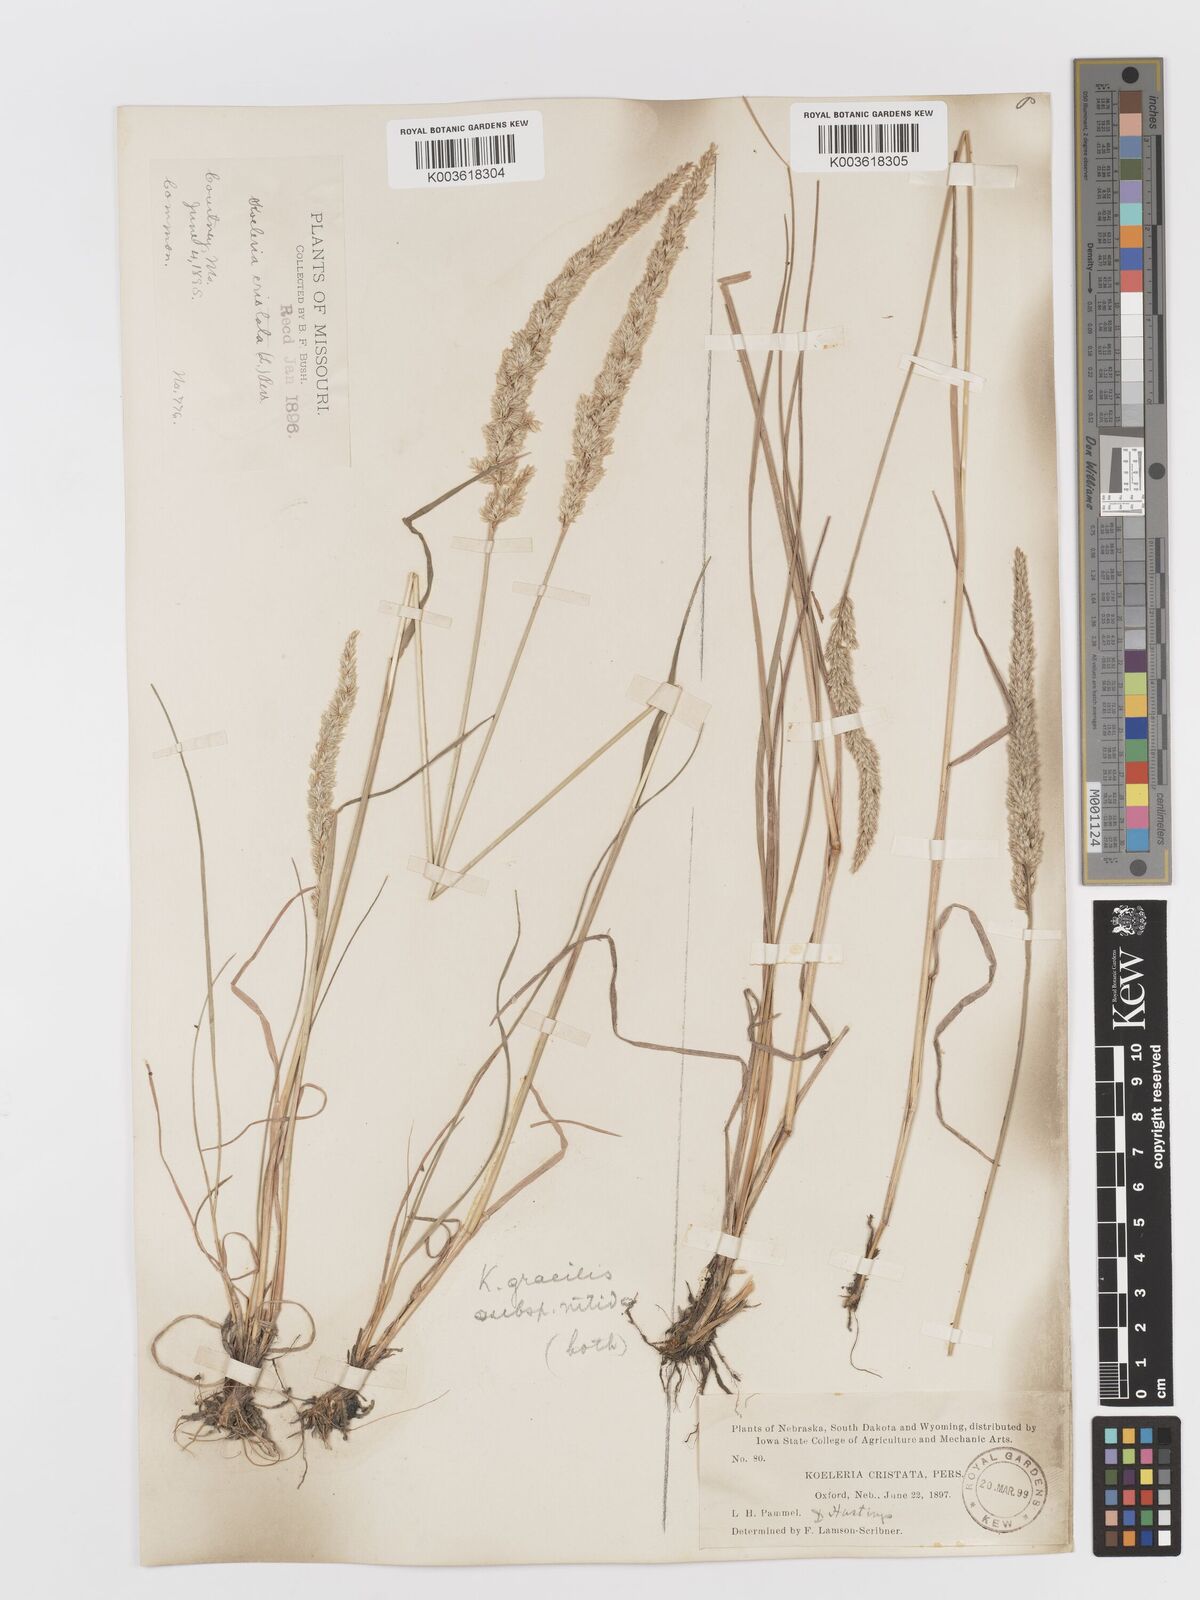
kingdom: Plantae
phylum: Tracheophyta
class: Liliopsida
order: Poales
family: Poaceae
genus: Koeleria
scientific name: Koeleria macrantha
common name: Crested hair-grass
